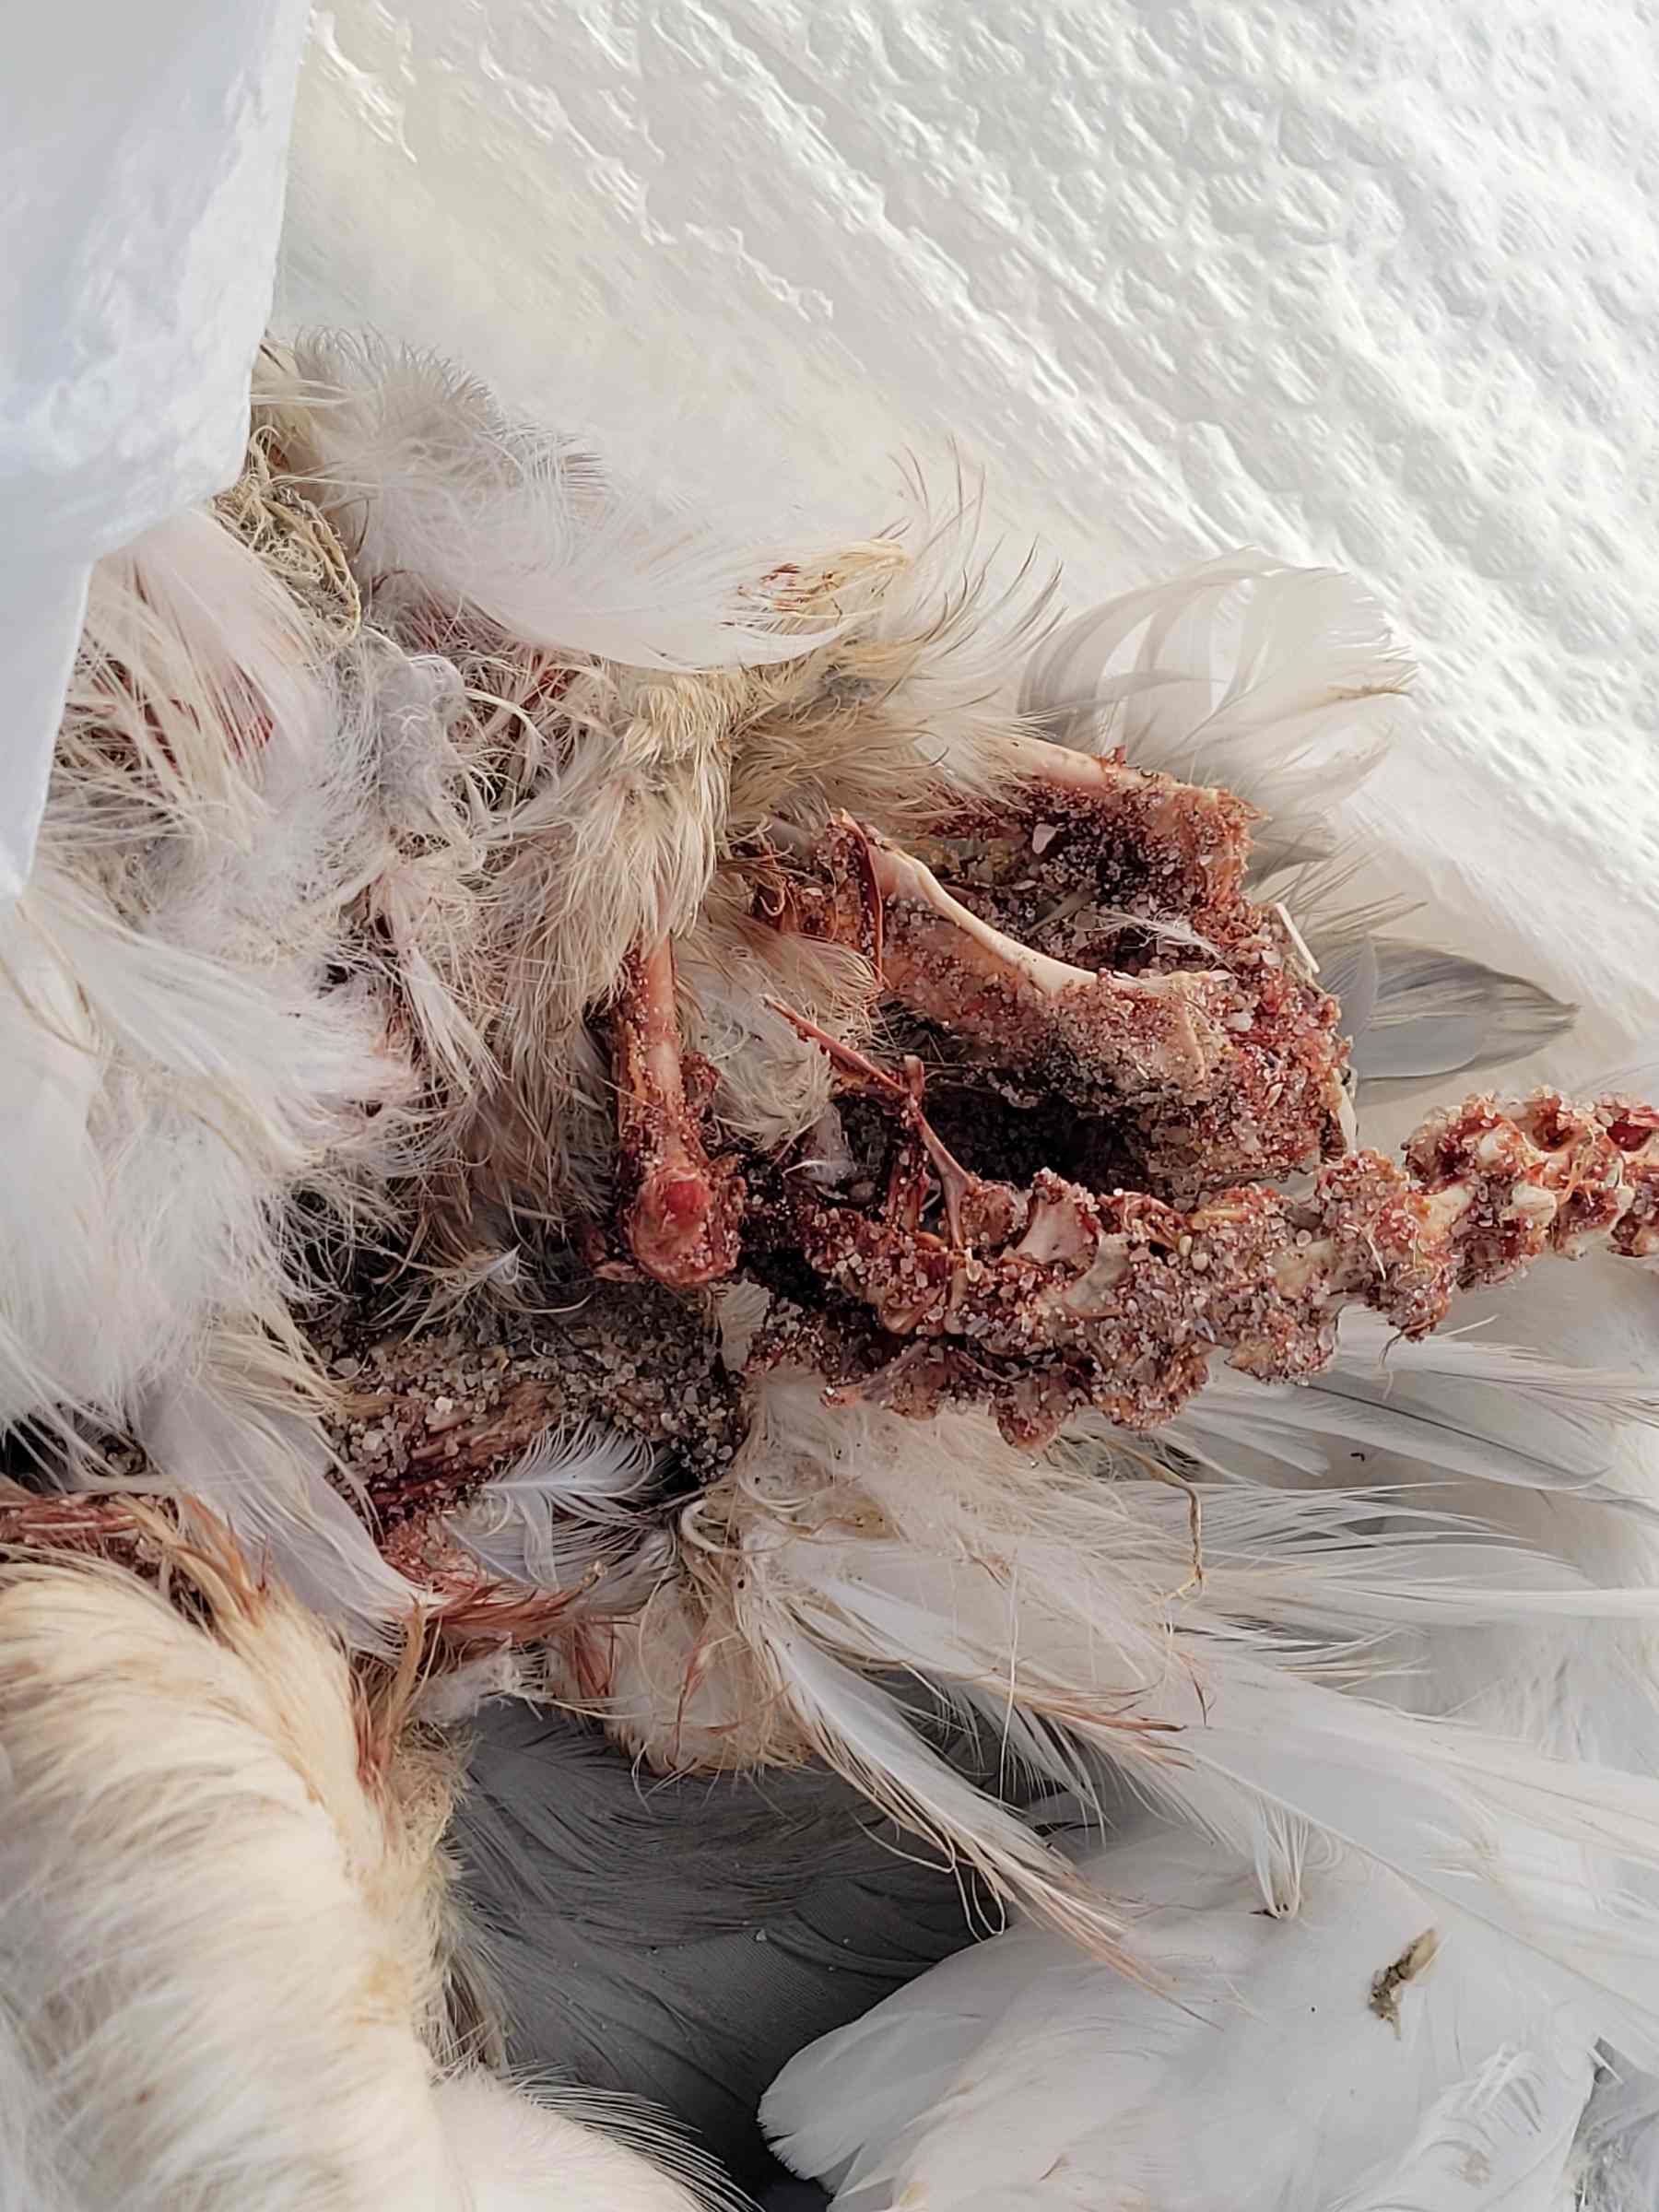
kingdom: Animalia
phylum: Chordata
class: Aves
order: Charadriiformes
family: Laridae
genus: Larus
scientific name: Larus delawarensis
